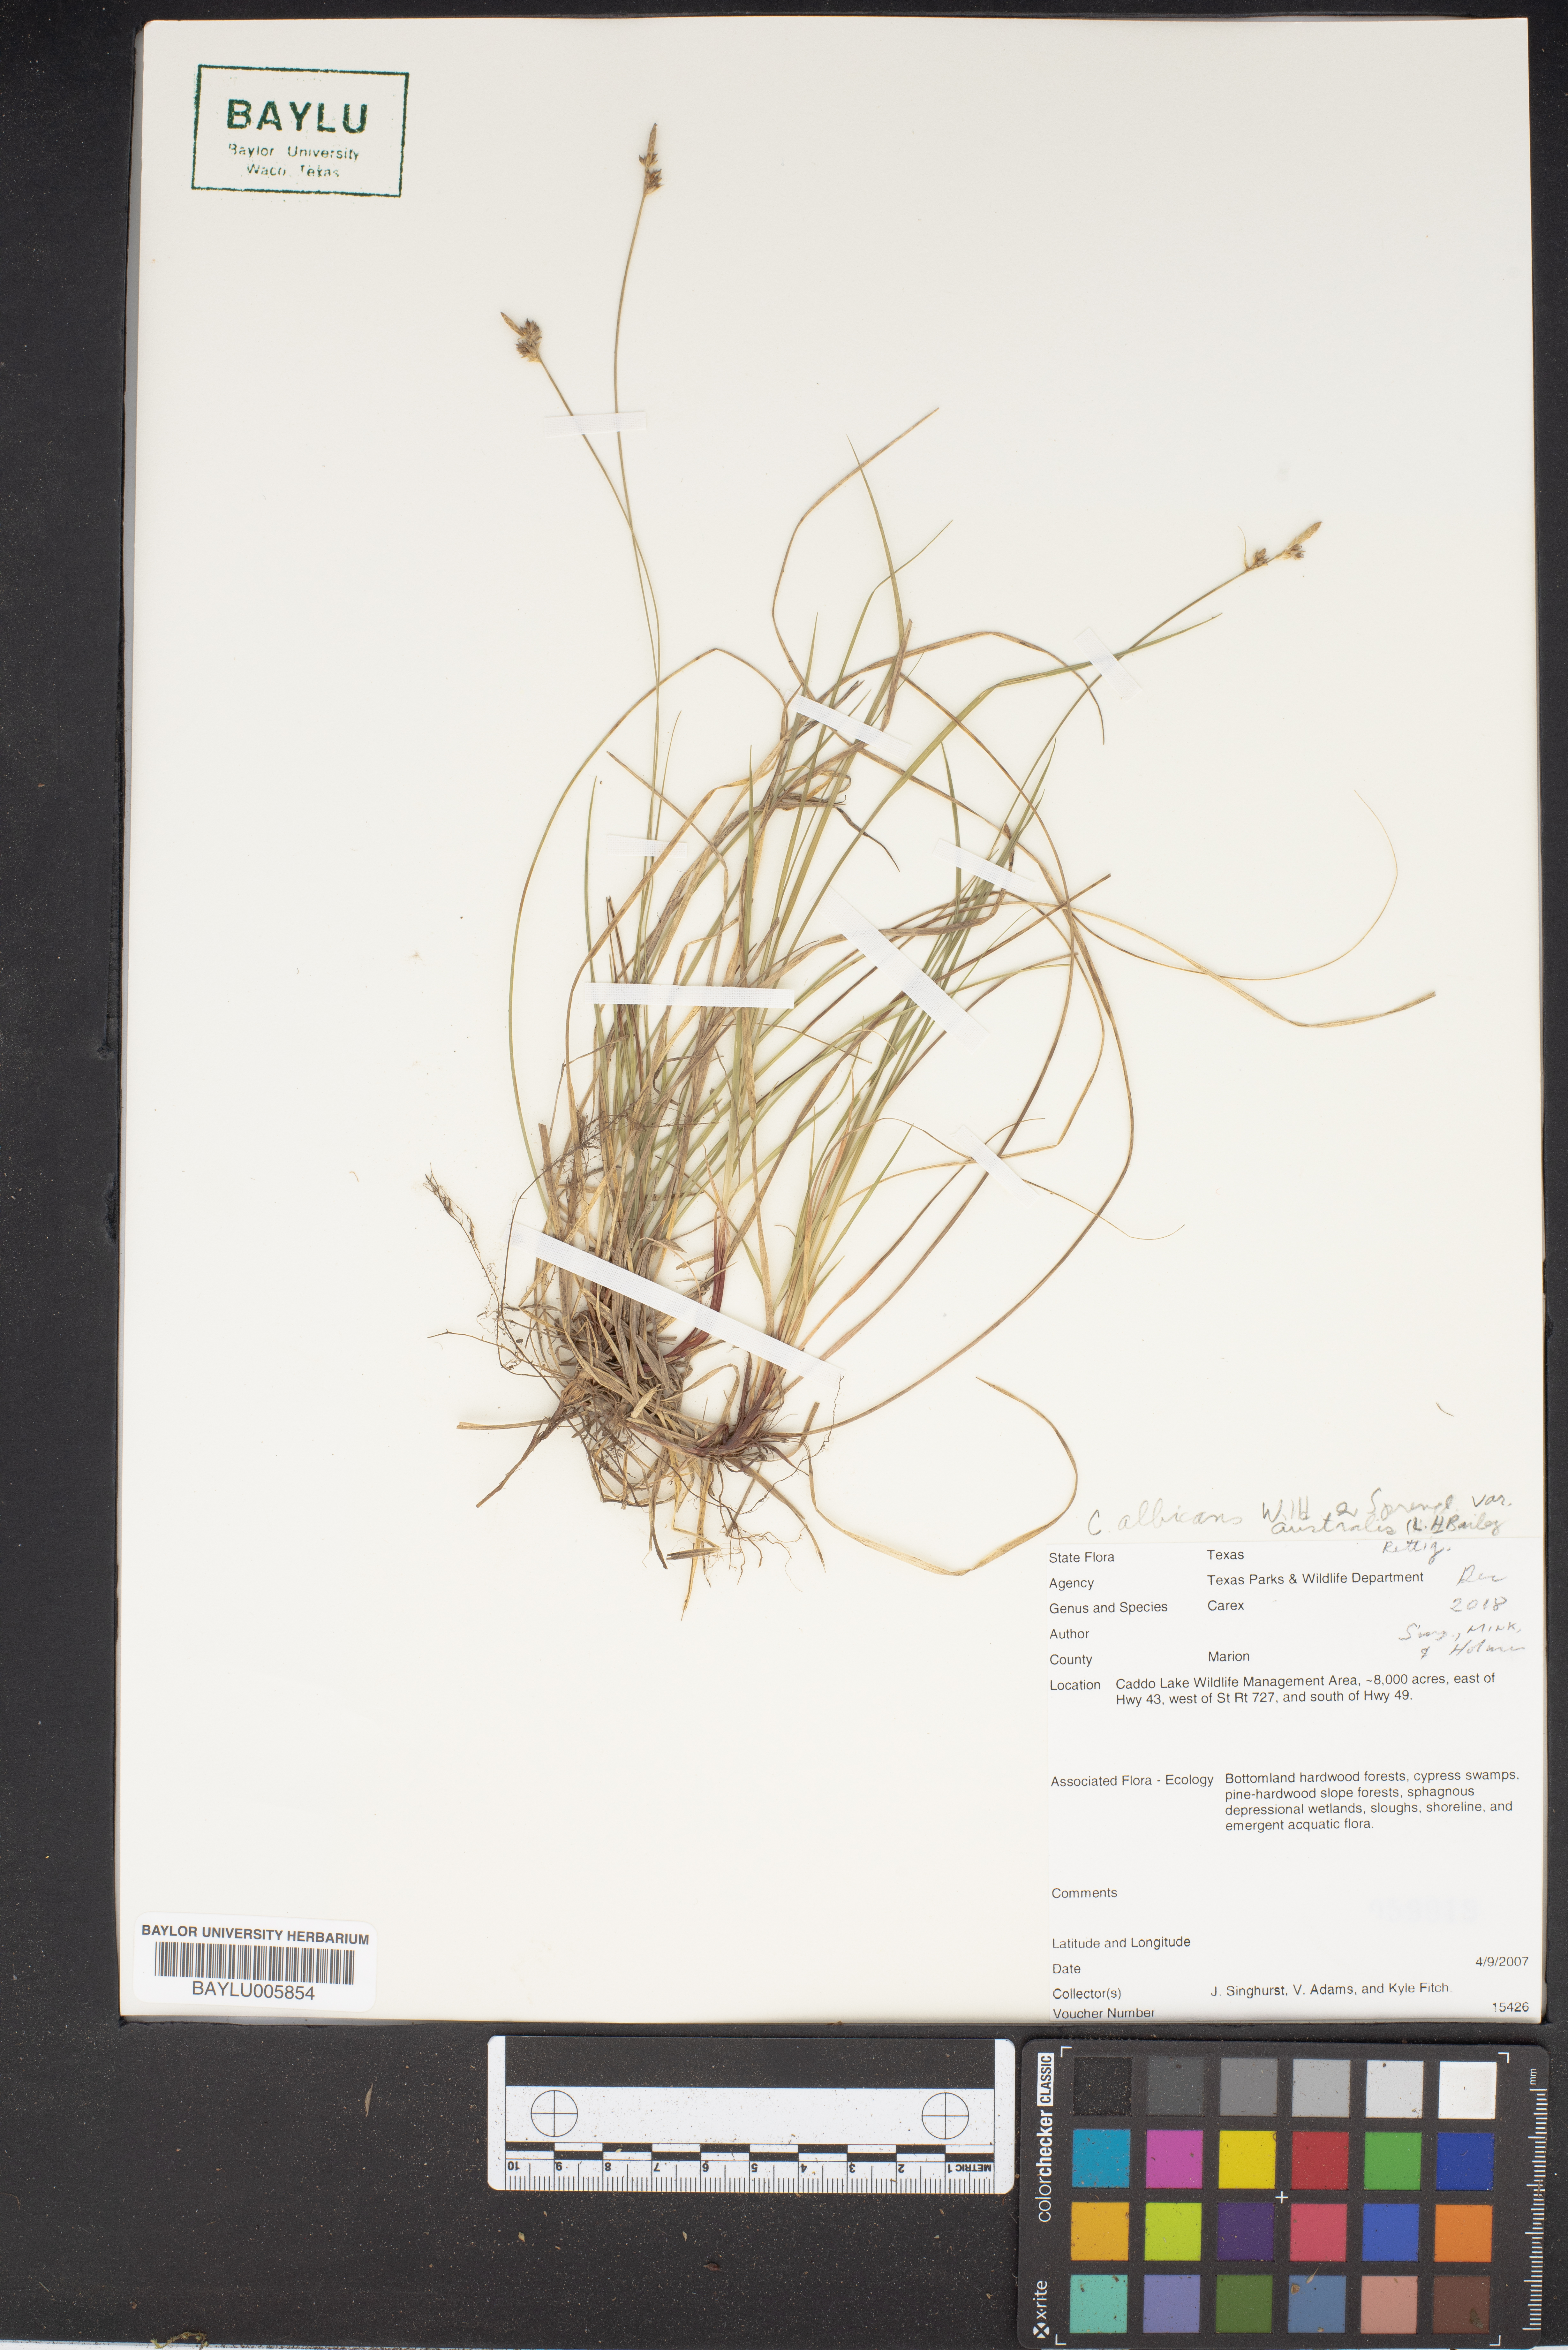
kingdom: Plantae
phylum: Tracheophyta
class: Liliopsida
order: Poales
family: Cyperaceae
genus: Carex
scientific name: Carex
